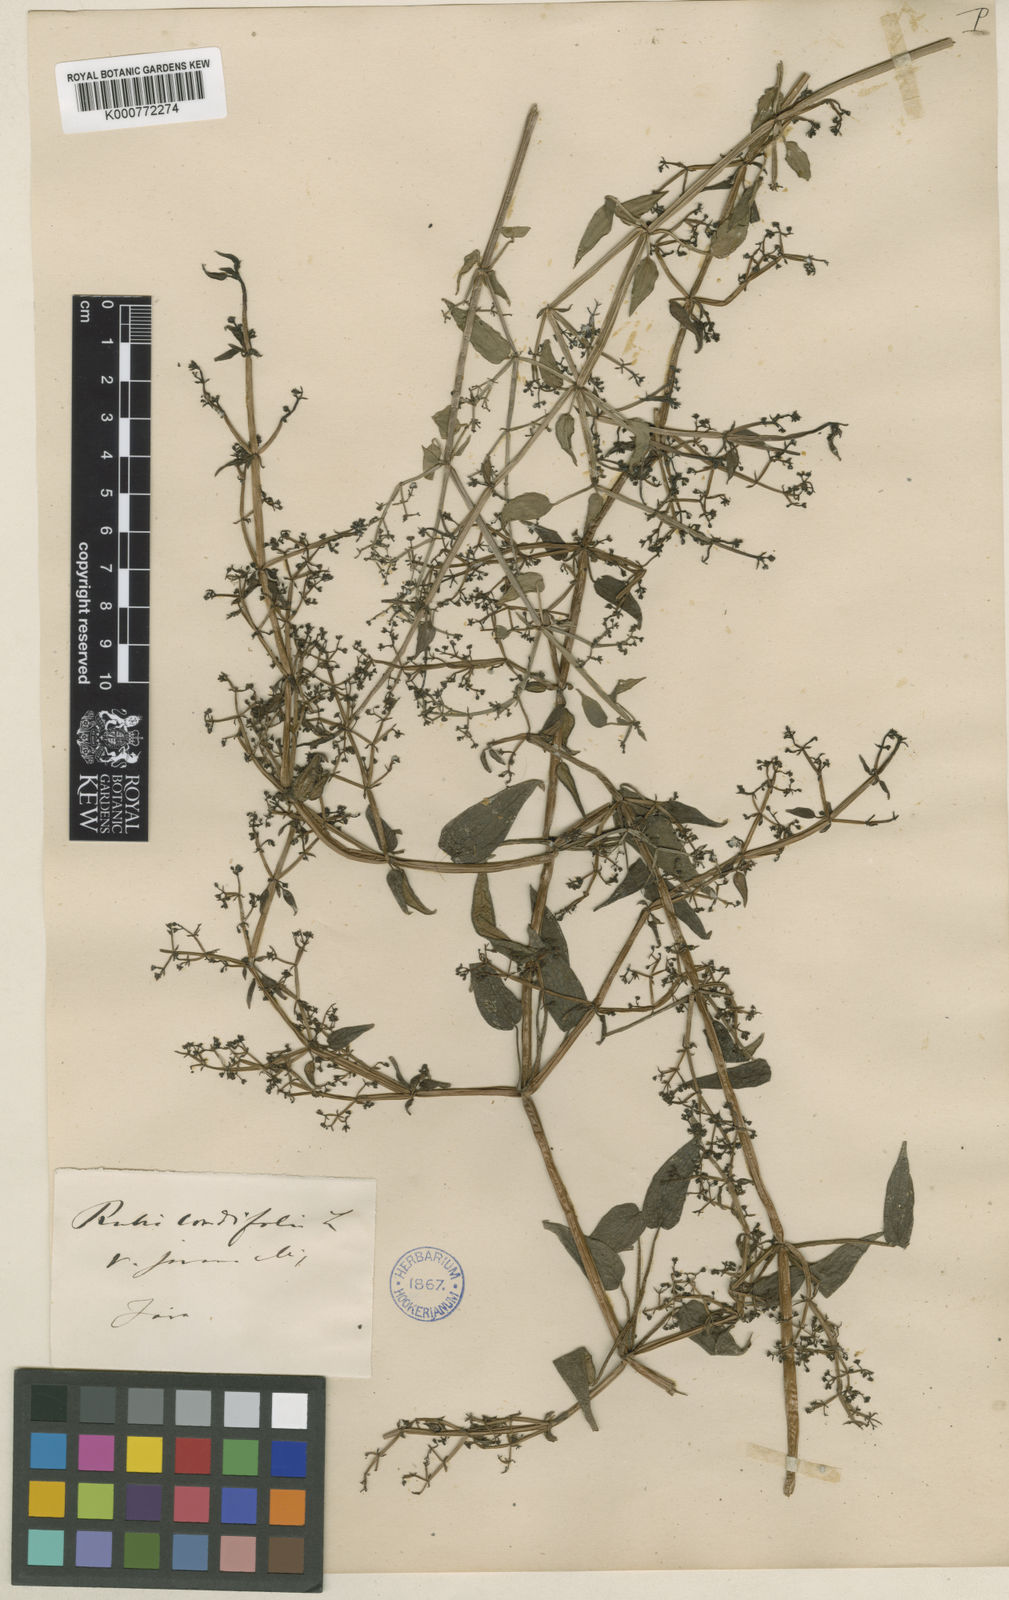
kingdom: Plantae
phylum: Tracheophyta
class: Magnoliopsida
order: Gentianales
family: Rubiaceae
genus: Rubia
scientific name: Rubia cordifolia
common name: Indian madder
